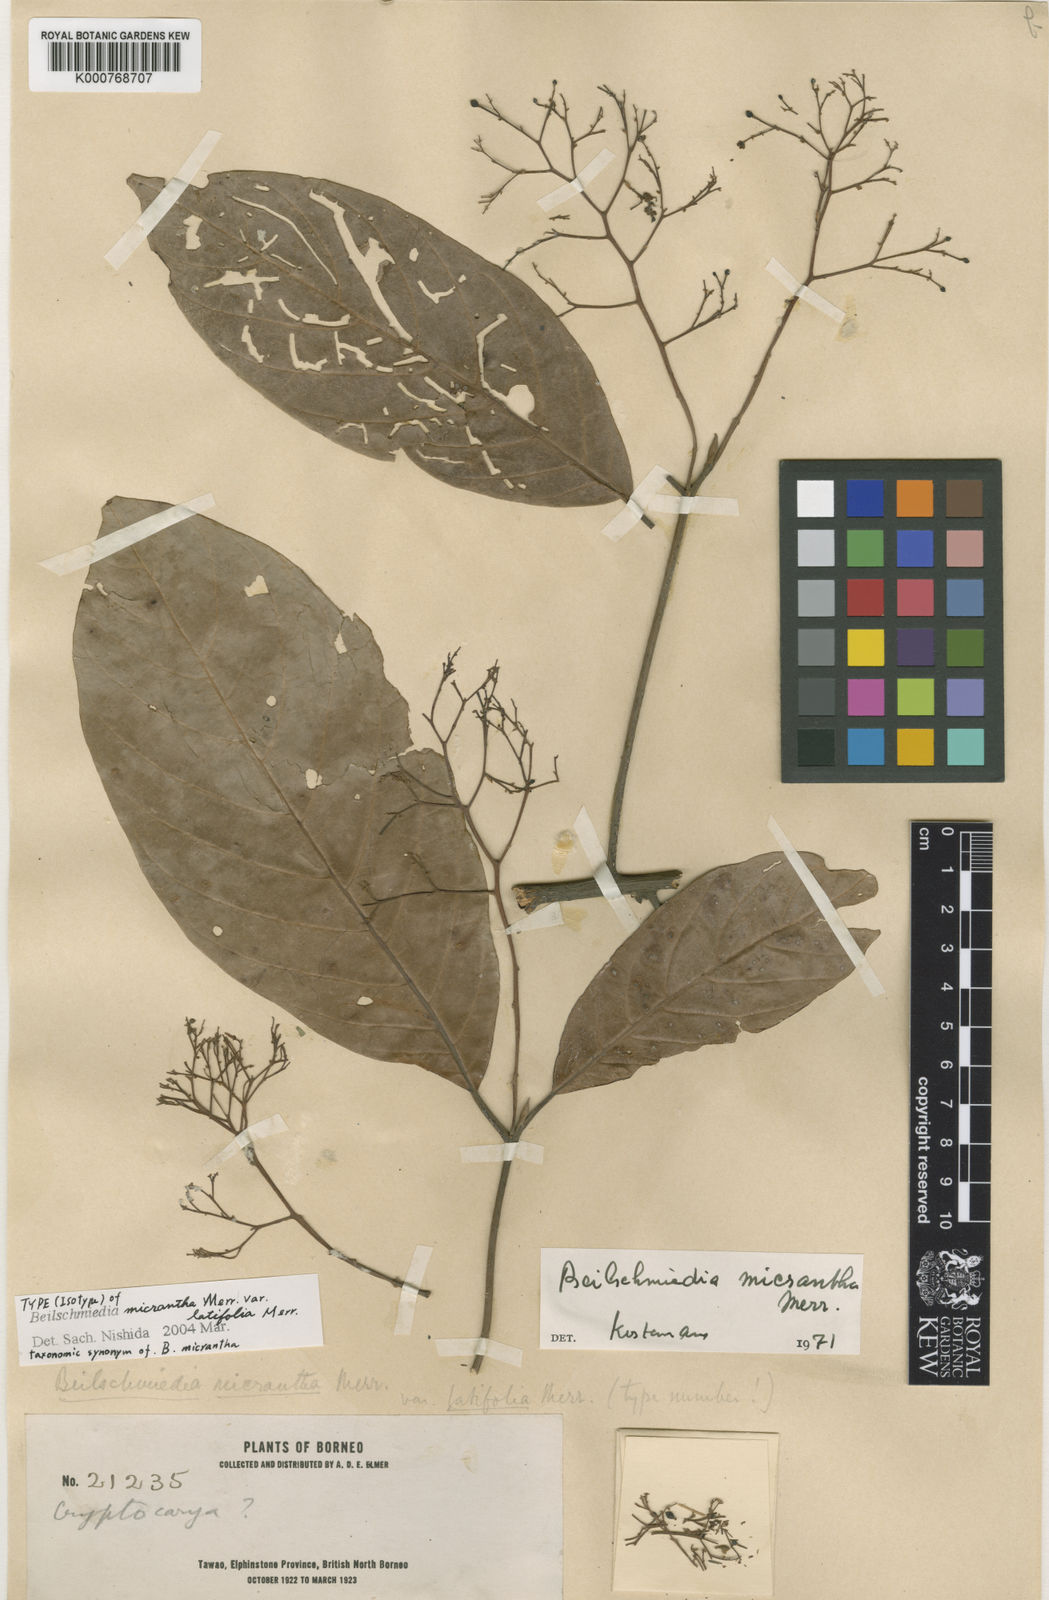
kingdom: Plantae
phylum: Tracheophyta
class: Magnoliopsida
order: Laurales
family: Lauraceae
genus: Beilschmiedia
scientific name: Beilschmiedia micrantha
